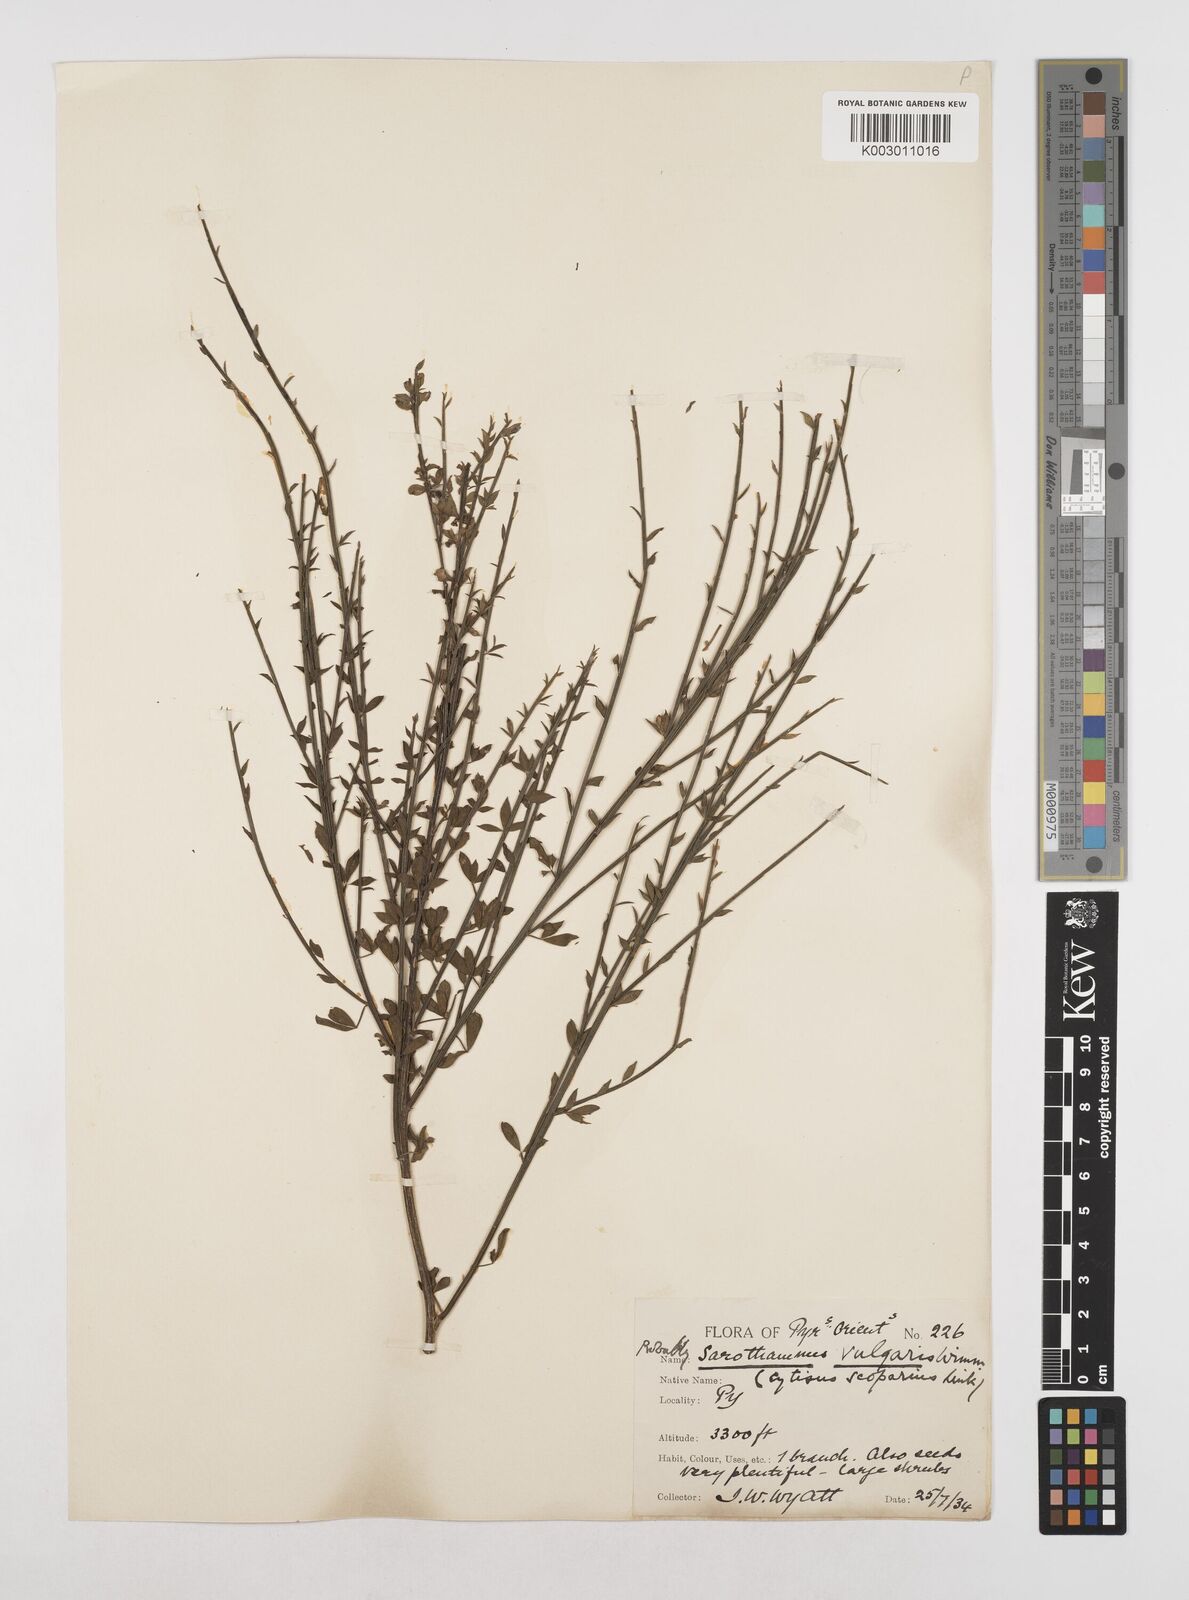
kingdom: Plantae
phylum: Tracheophyta
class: Magnoliopsida
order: Fabales
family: Fabaceae
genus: Cytisus
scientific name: Cytisus scoparius
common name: Scotch broom
